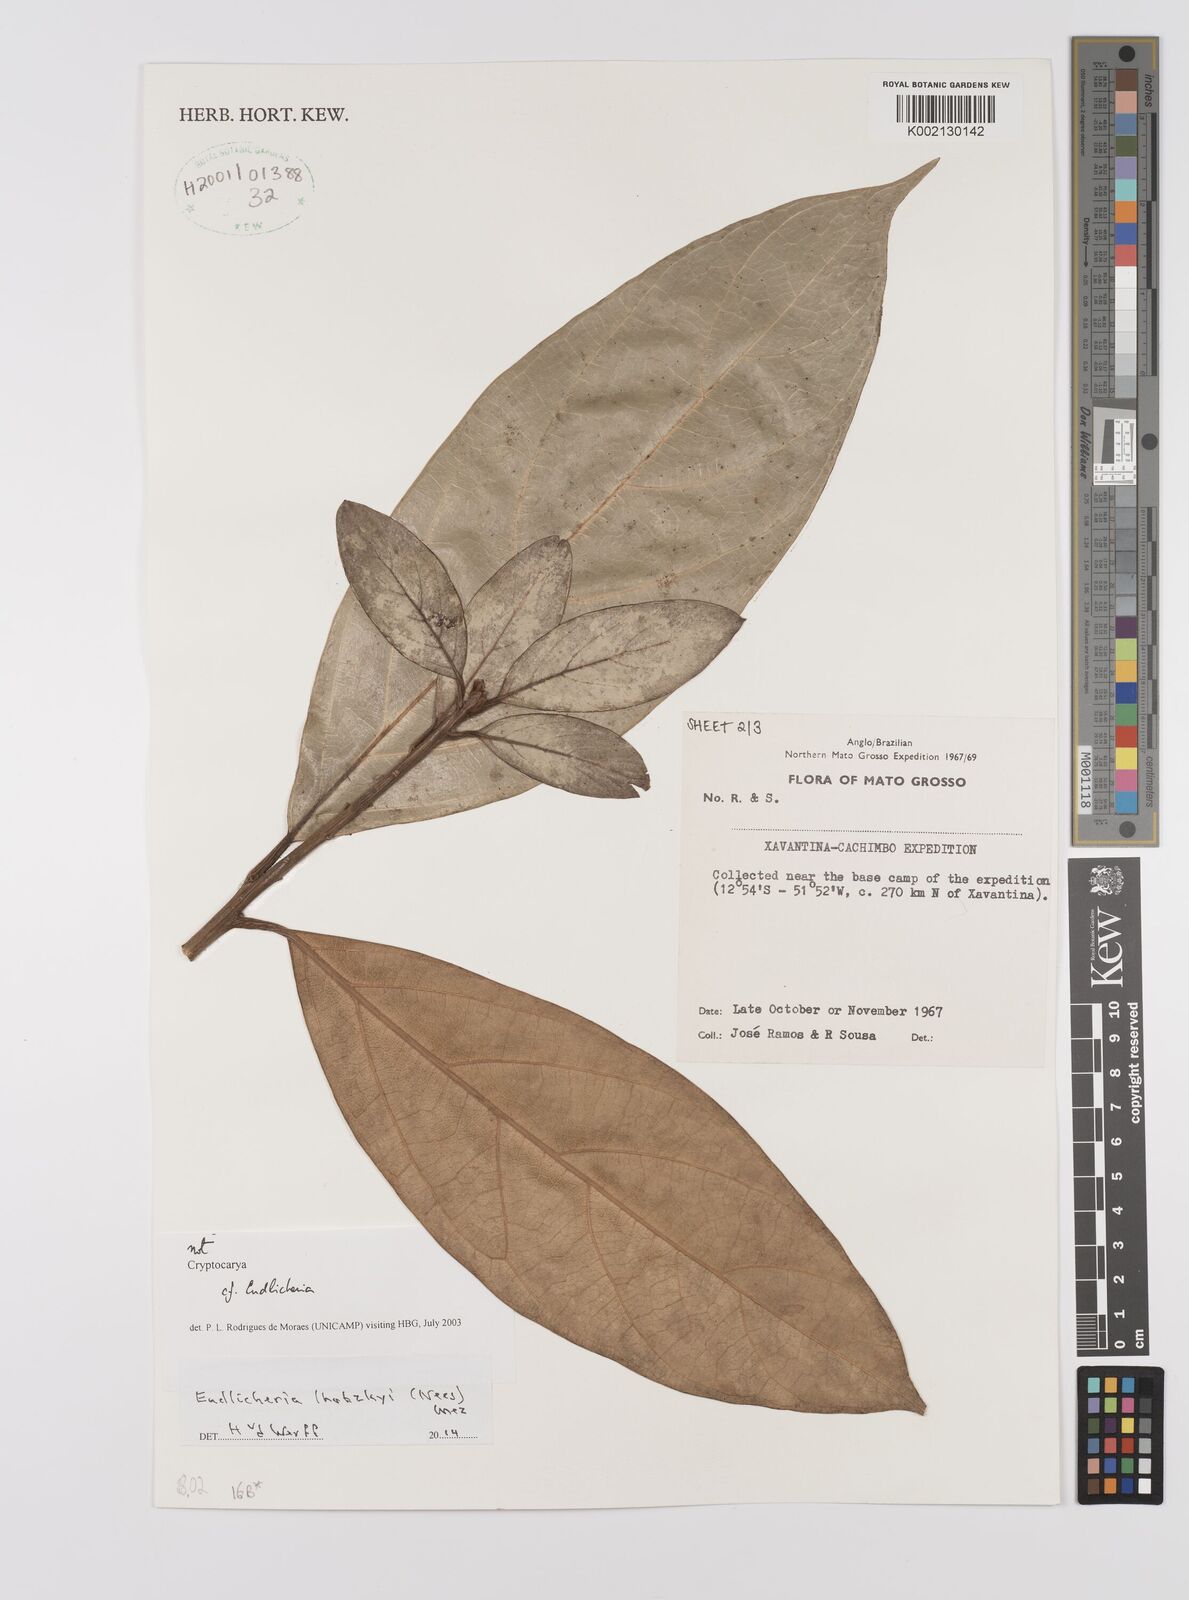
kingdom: Plantae
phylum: Tracheophyta
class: Magnoliopsida
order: Laurales
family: Lauraceae
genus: Endlicheria
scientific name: Endlicheria lhotzkyi
